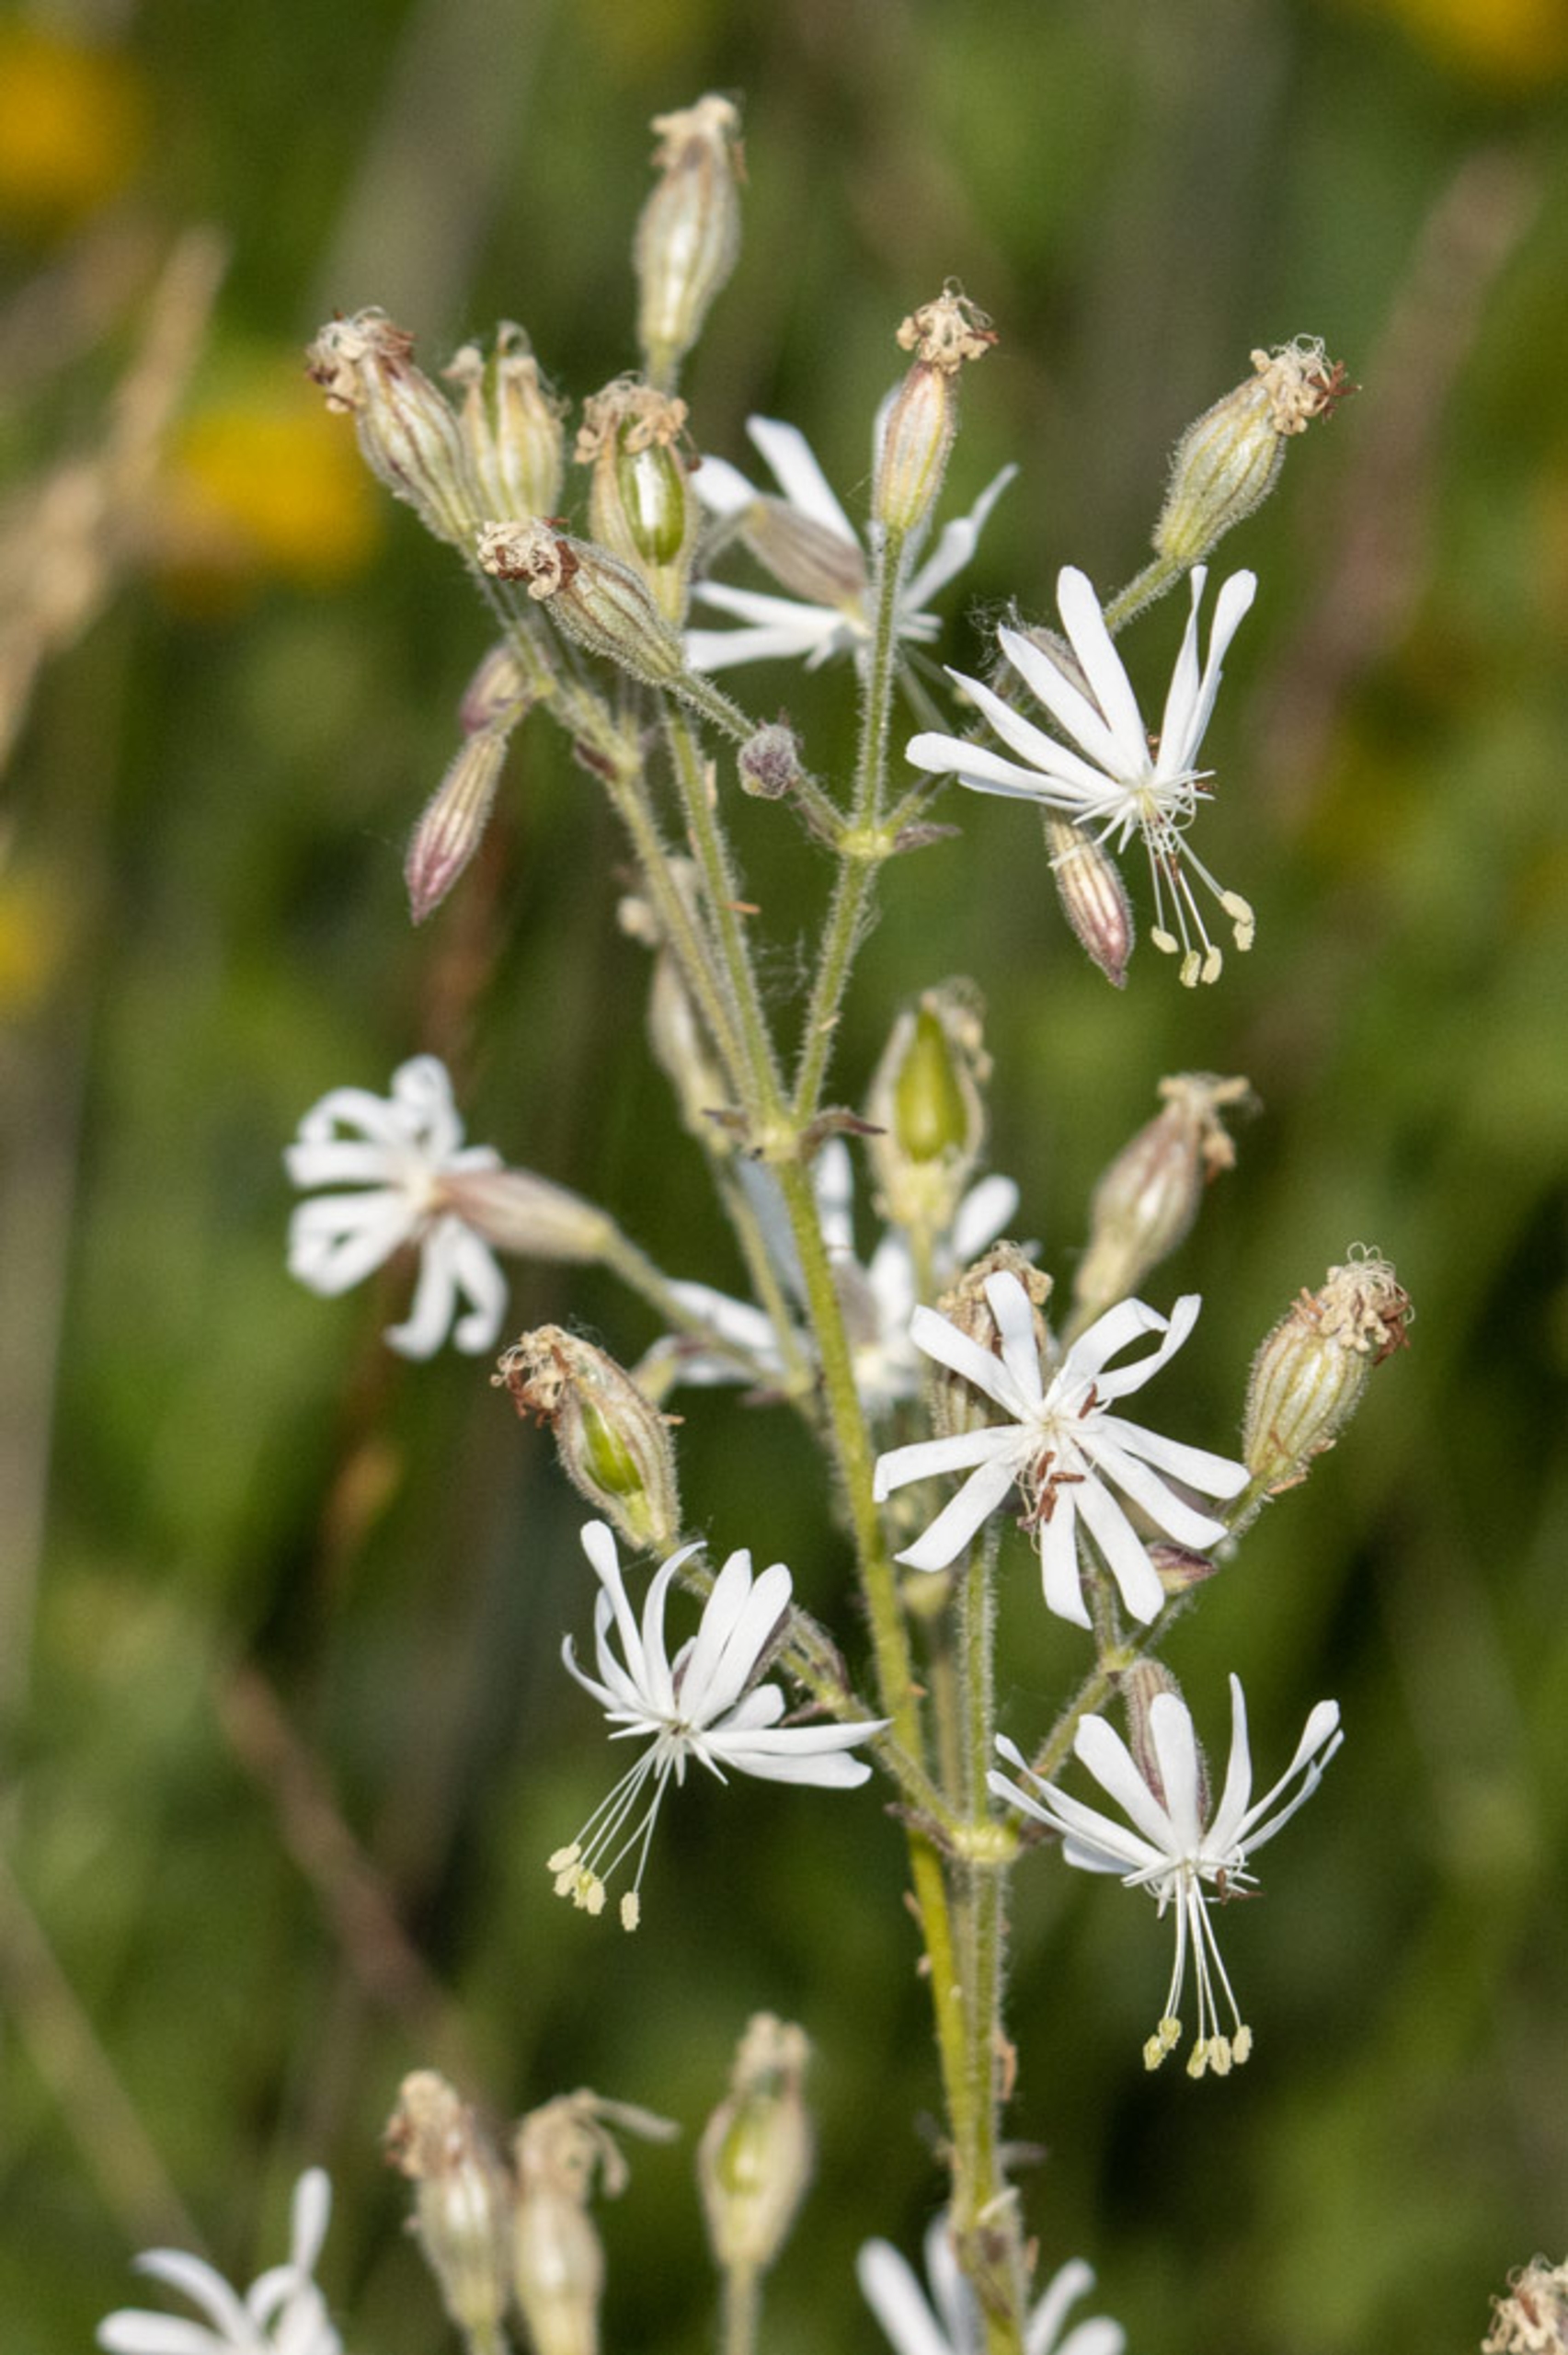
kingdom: Plantae
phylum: Tracheophyta
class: Magnoliopsida
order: Caryophyllales
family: Caryophyllaceae
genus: Silene
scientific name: Silene nutans
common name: Nikkende limurt
